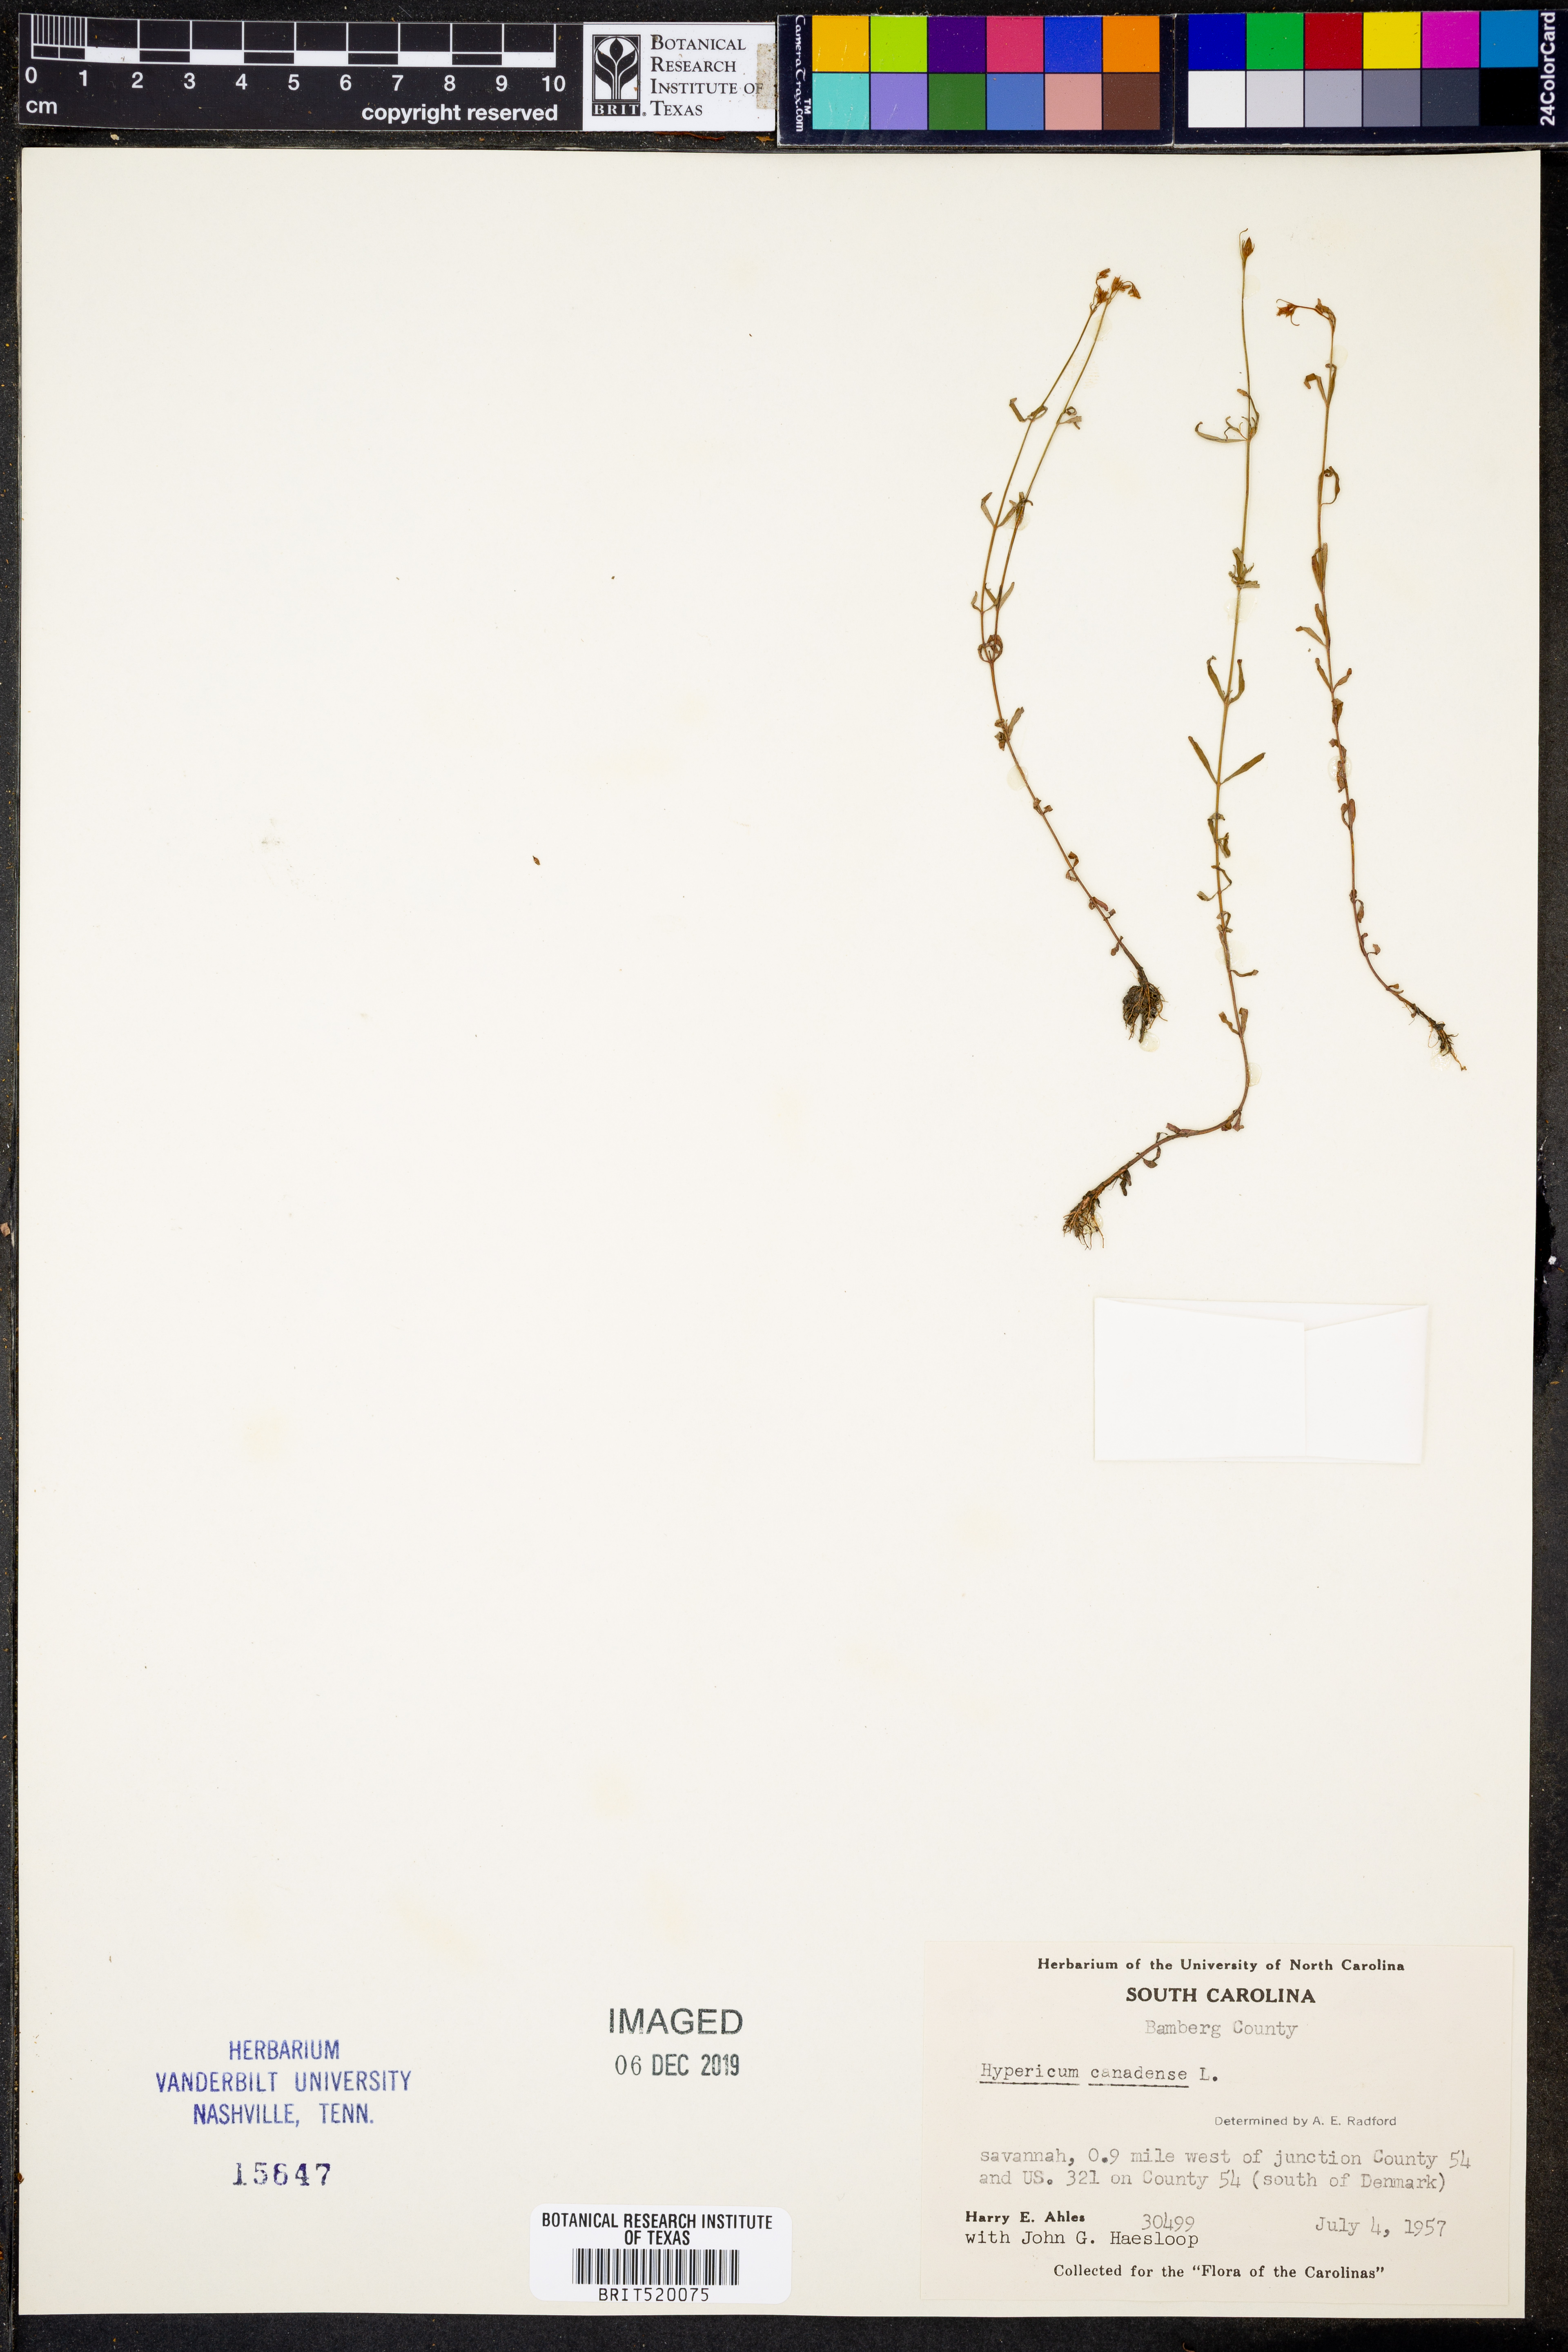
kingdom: Plantae
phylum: Tracheophyta
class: Magnoliopsida
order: Malpighiales
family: Hypericaceae
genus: Hypericum
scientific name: Hypericum canadense
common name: Irish st. john's-wort
